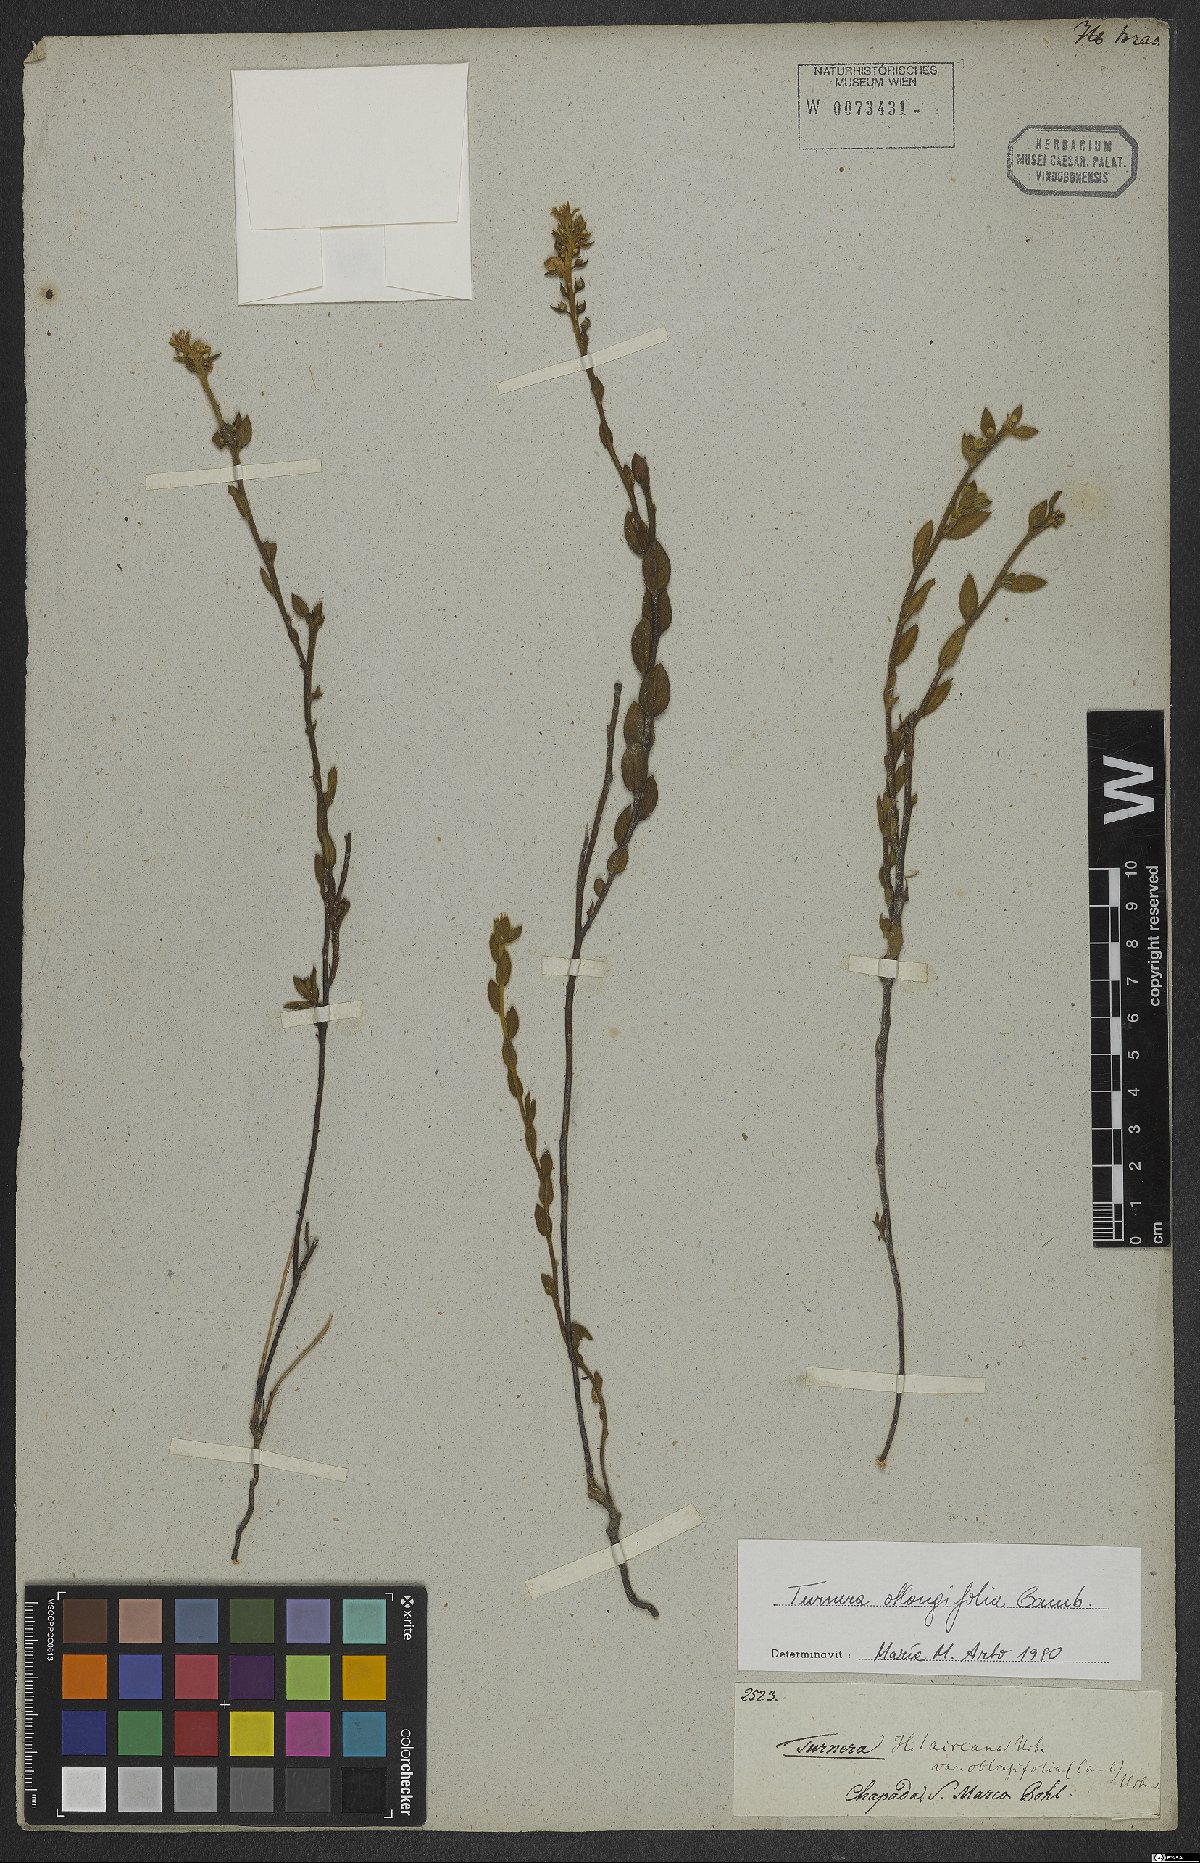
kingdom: Plantae
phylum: Tracheophyta
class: Magnoliopsida
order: Malpighiales
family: Turneraceae
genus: Turnera
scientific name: Turnera oblongifolia
